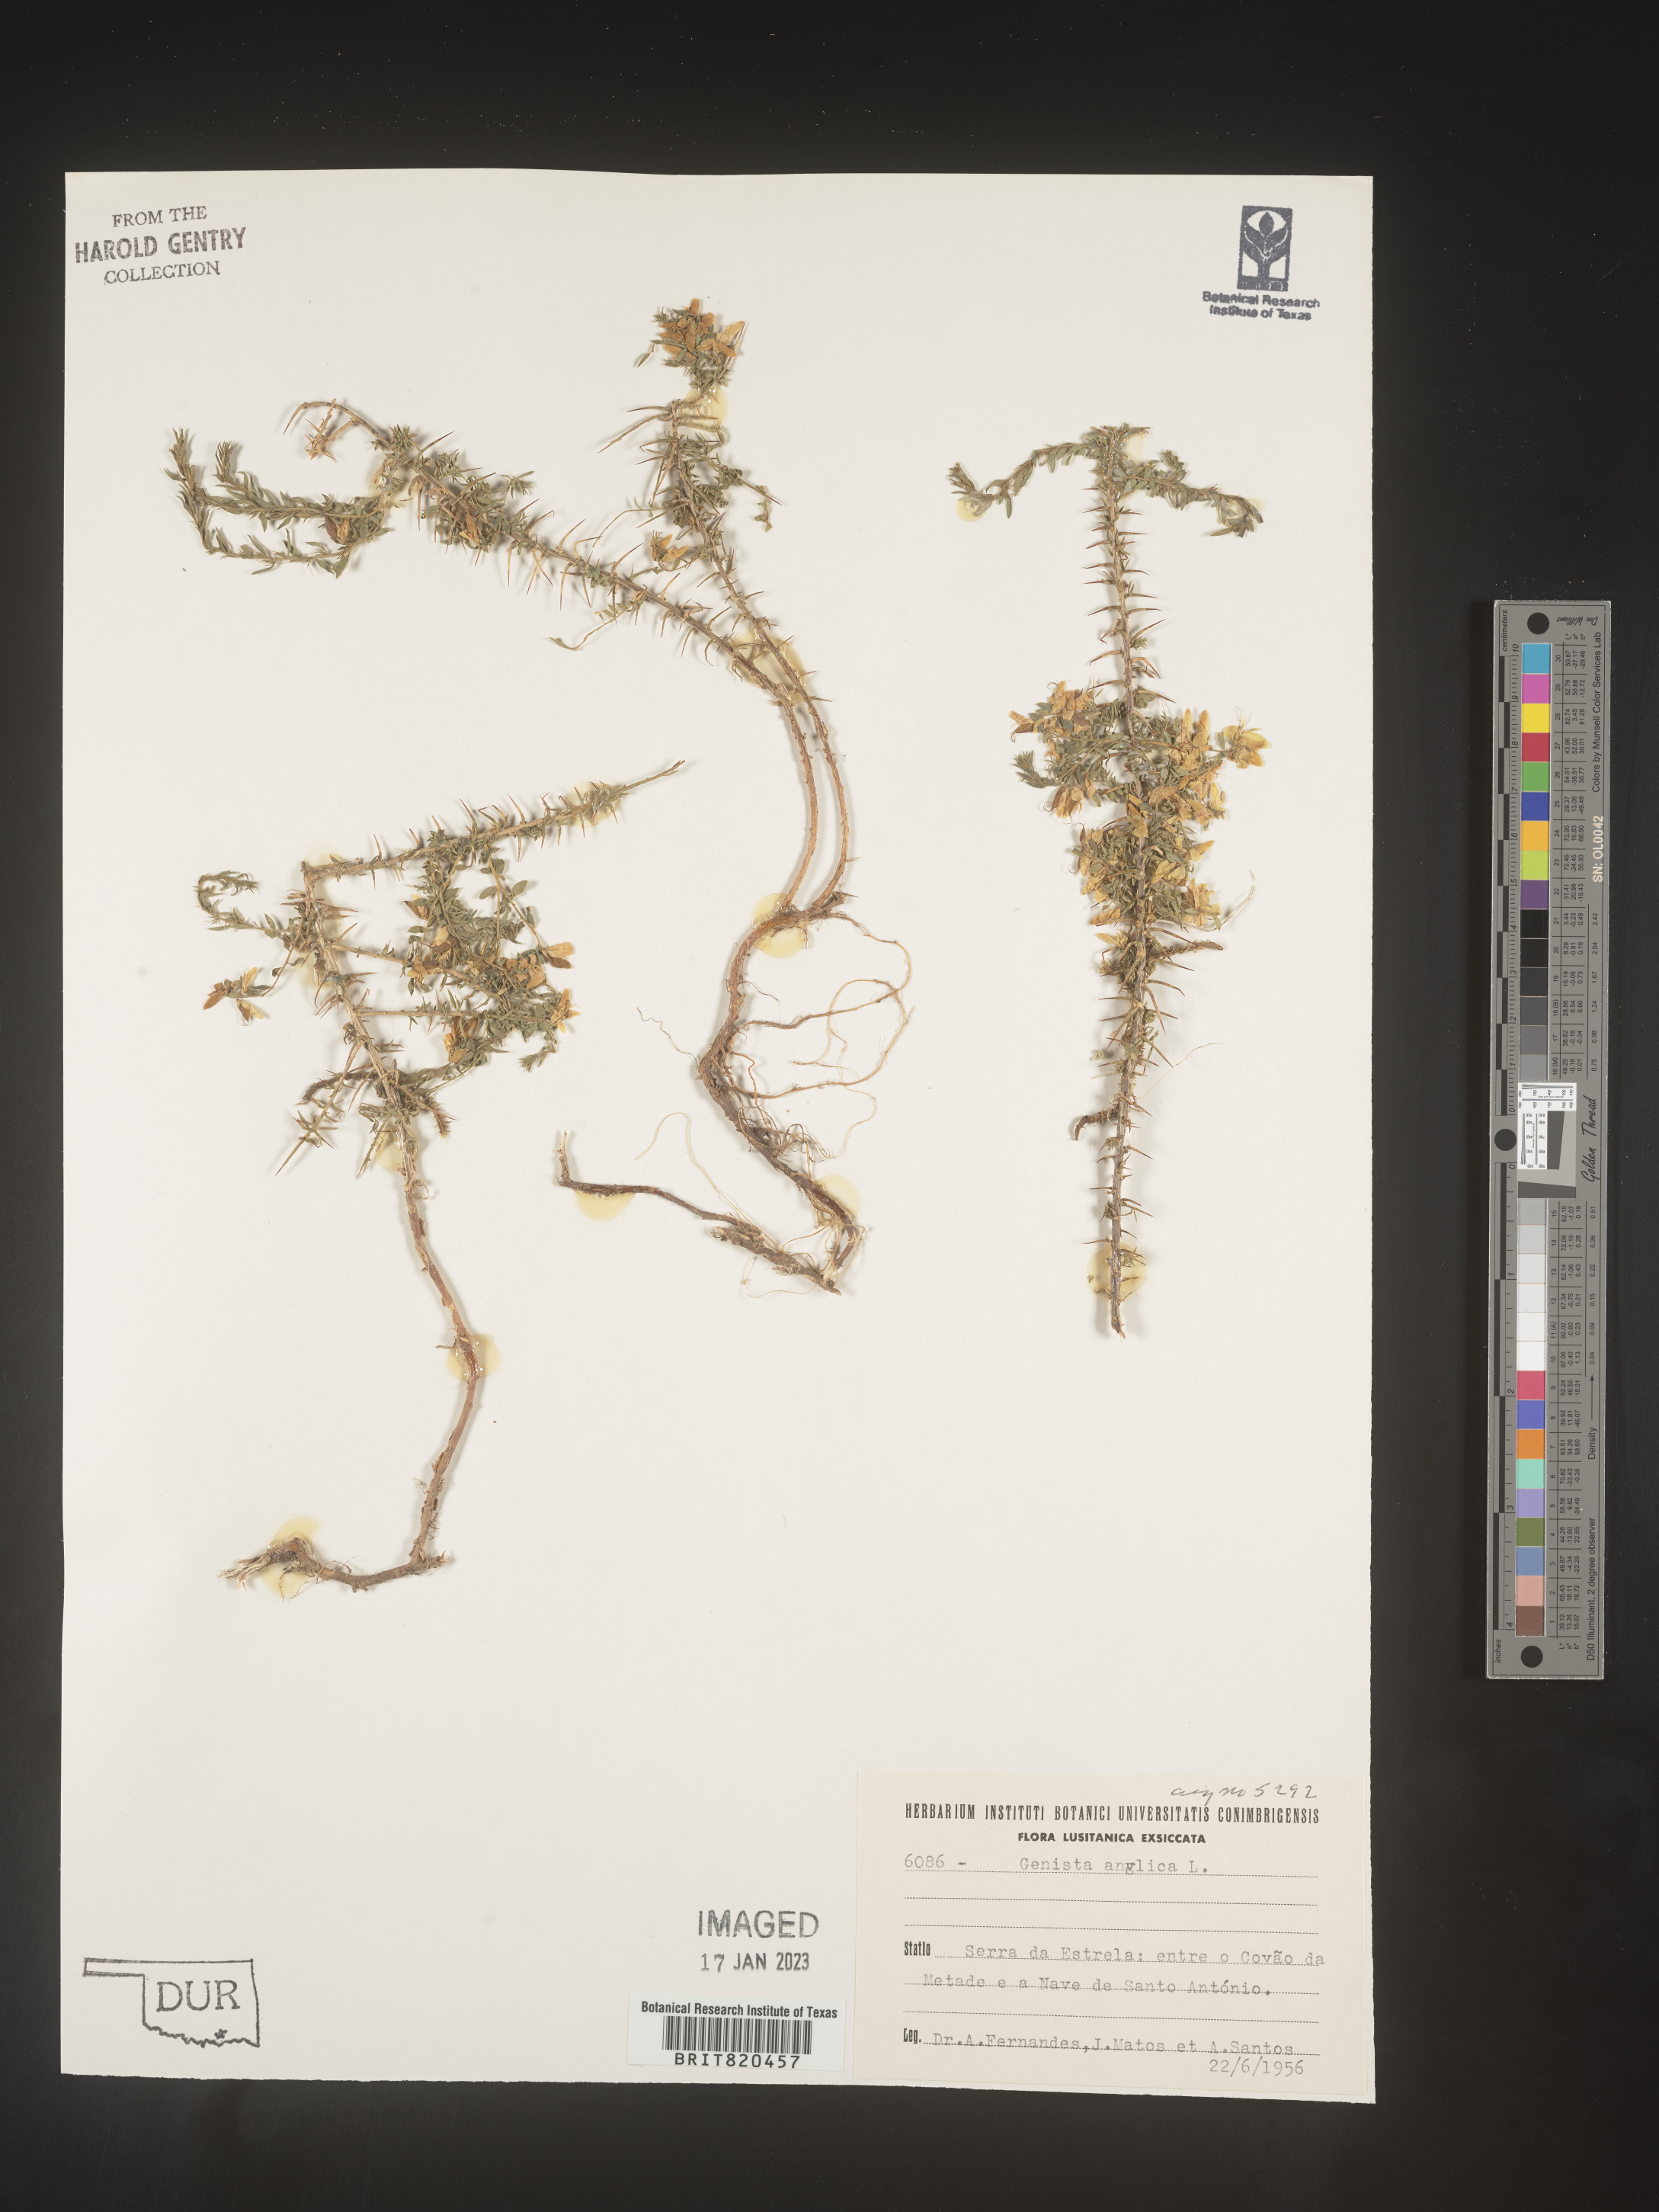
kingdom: Plantae
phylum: Tracheophyta
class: Magnoliopsida
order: Fabales
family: Fabaceae
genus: Genista
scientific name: Genista
